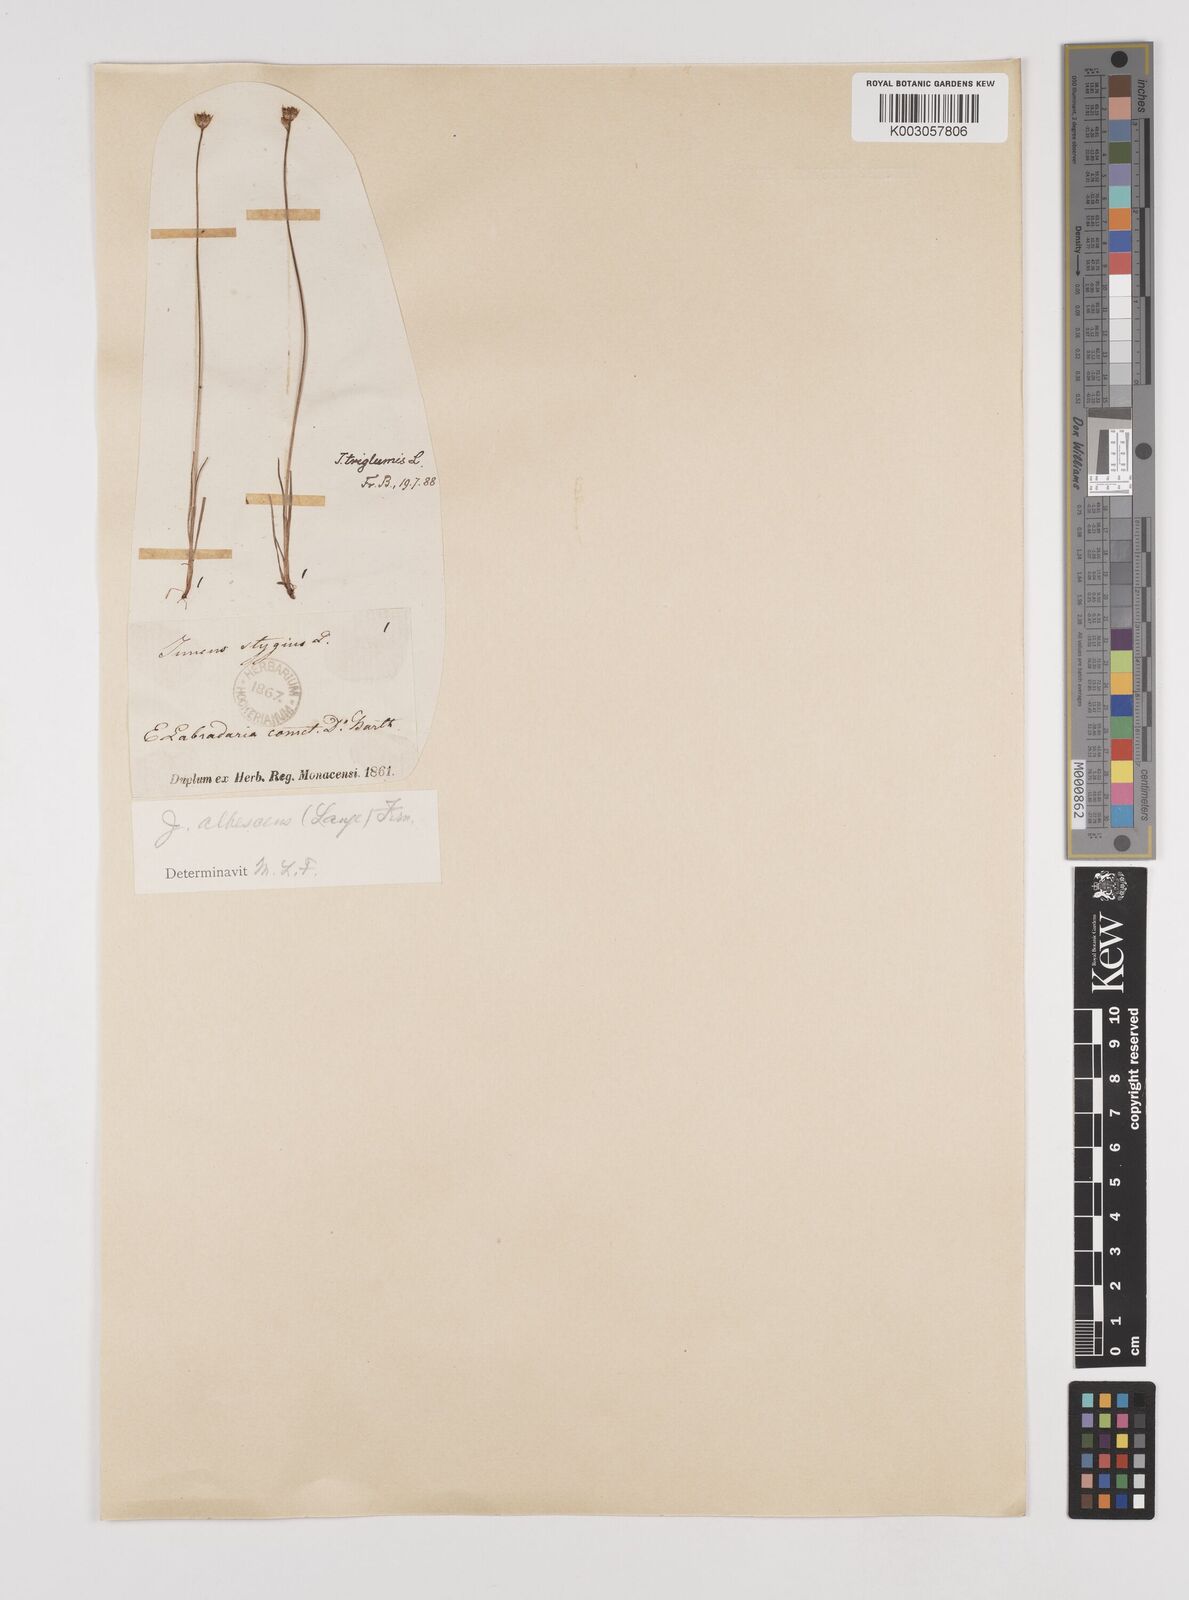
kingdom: Plantae
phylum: Tracheophyta
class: Liliopsida
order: Poales
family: Juncaceae
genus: Juncus
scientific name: Juncus triglumis
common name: Three-flowered rush
